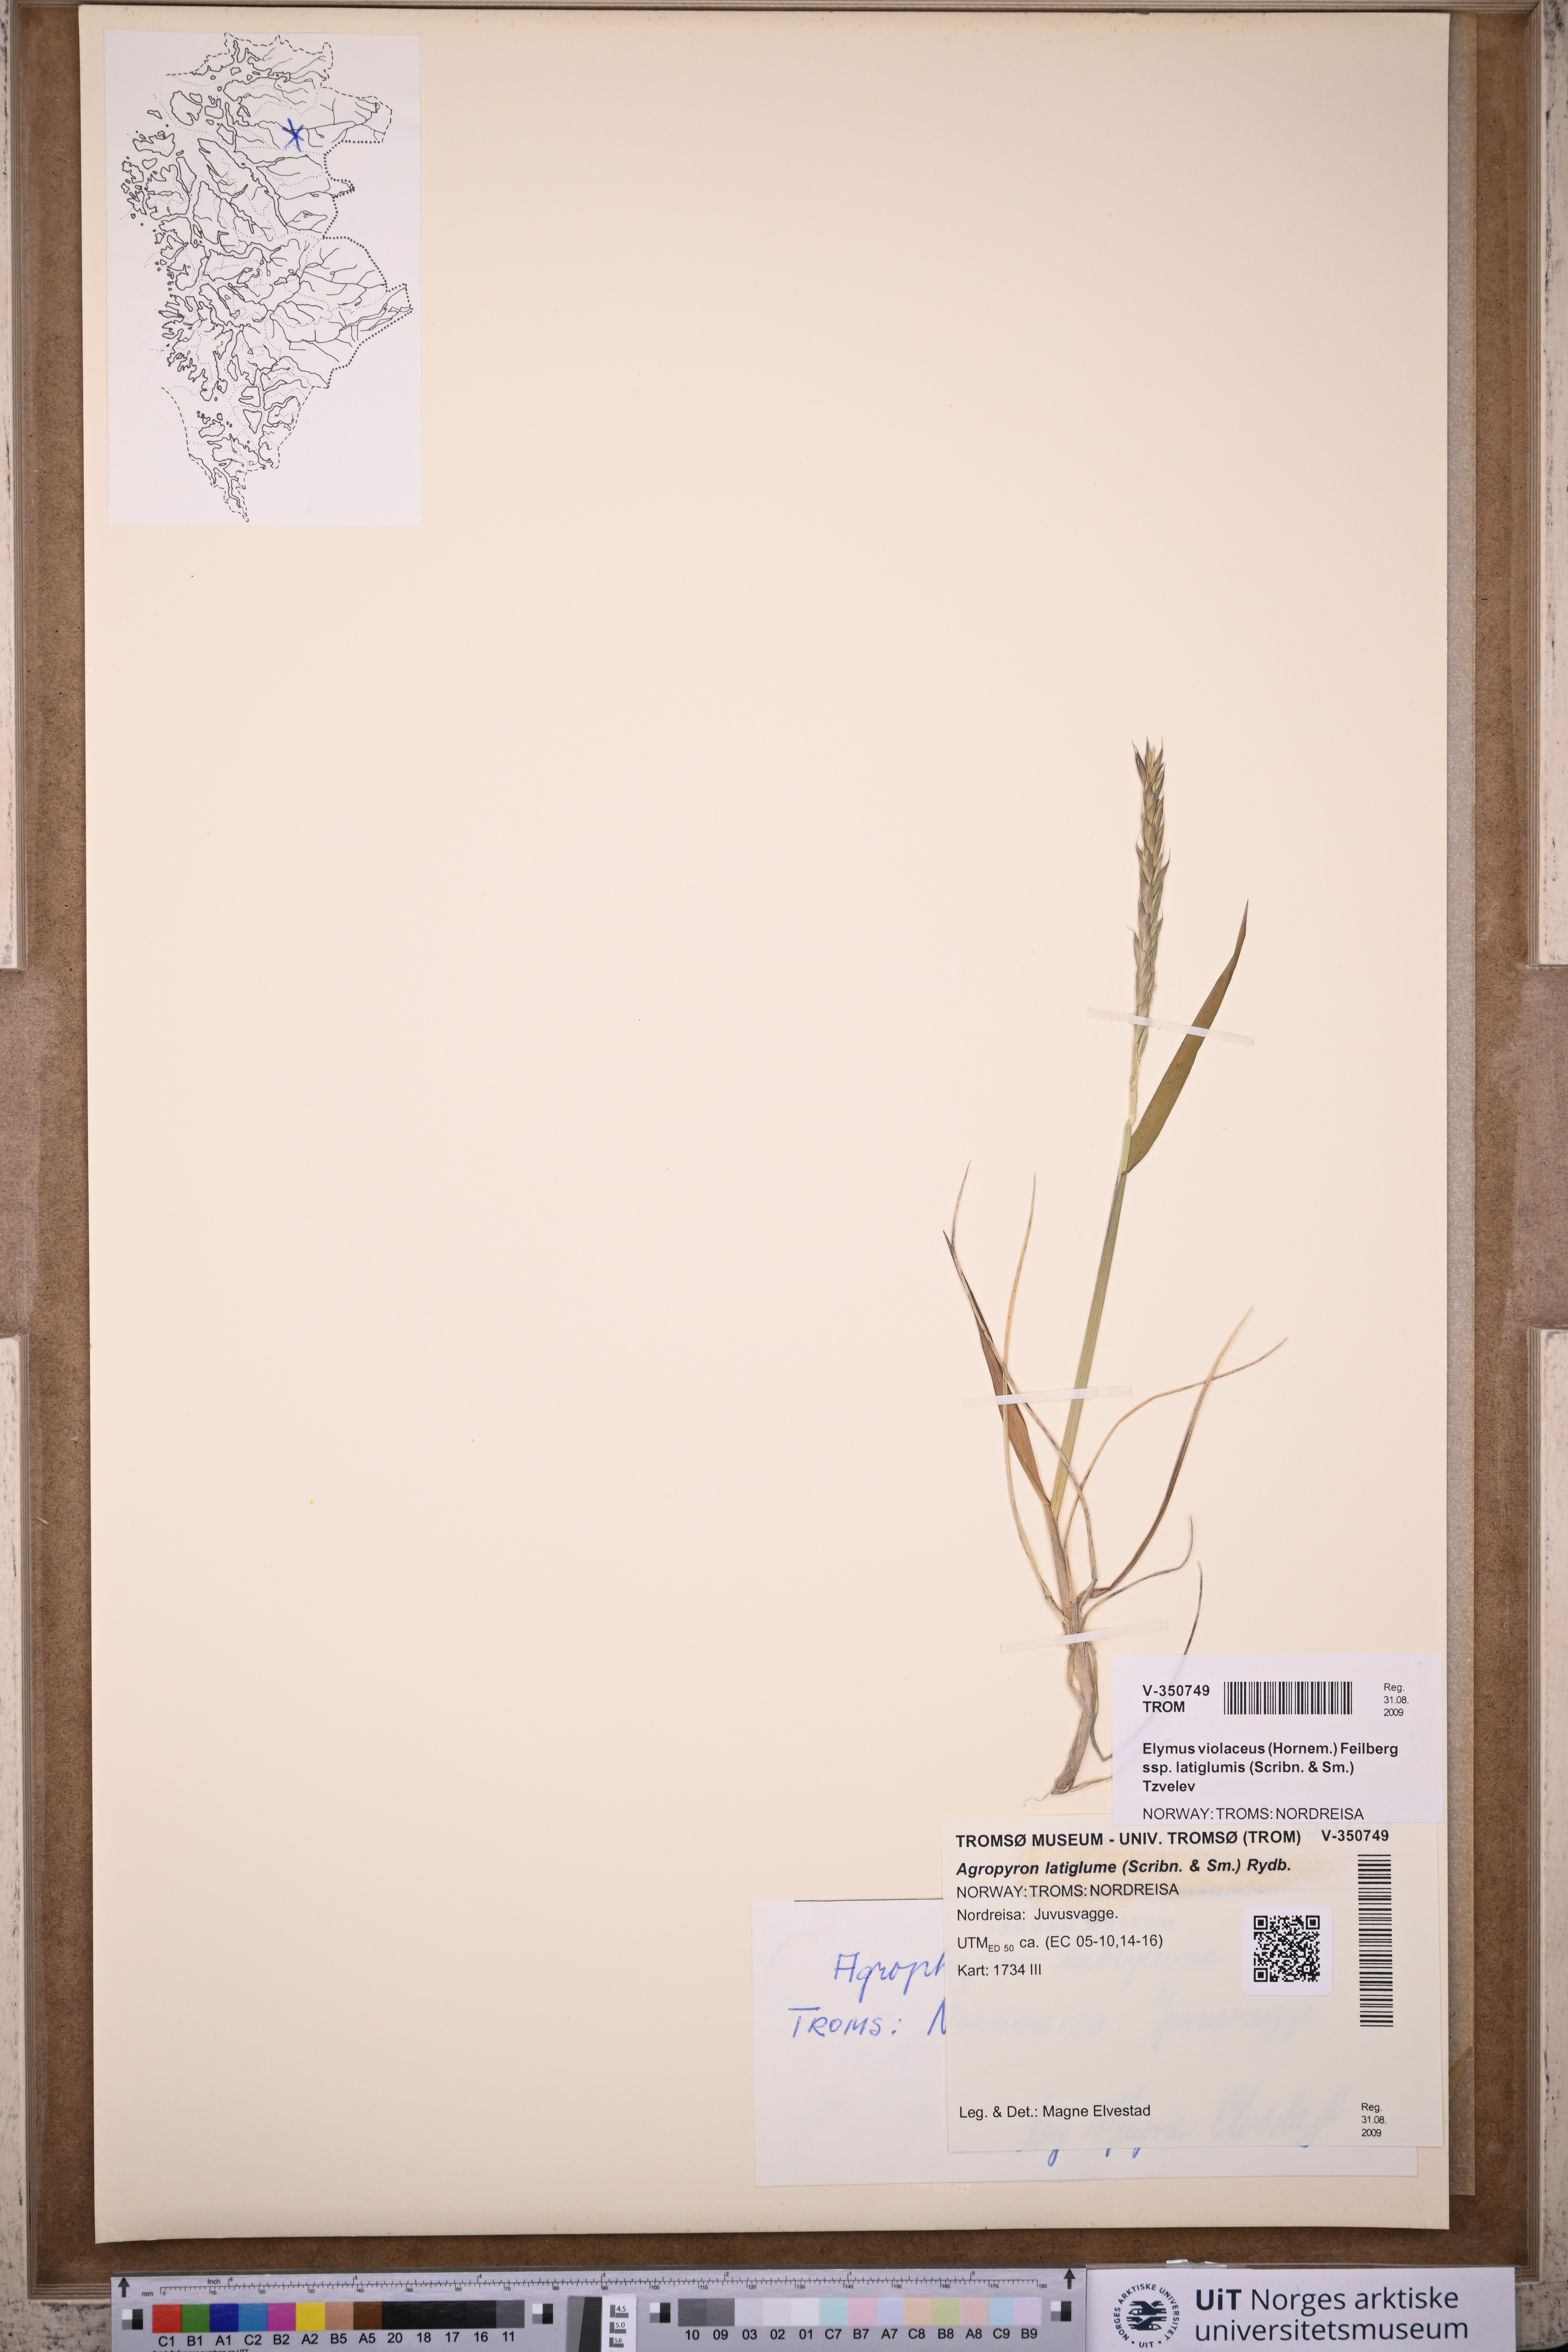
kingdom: Plantae
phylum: Tracheophyta
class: Liliopsida
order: Poales
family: Poaceae
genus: Elymus
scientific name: Elymus violaceus
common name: Arctic wheatgrass
